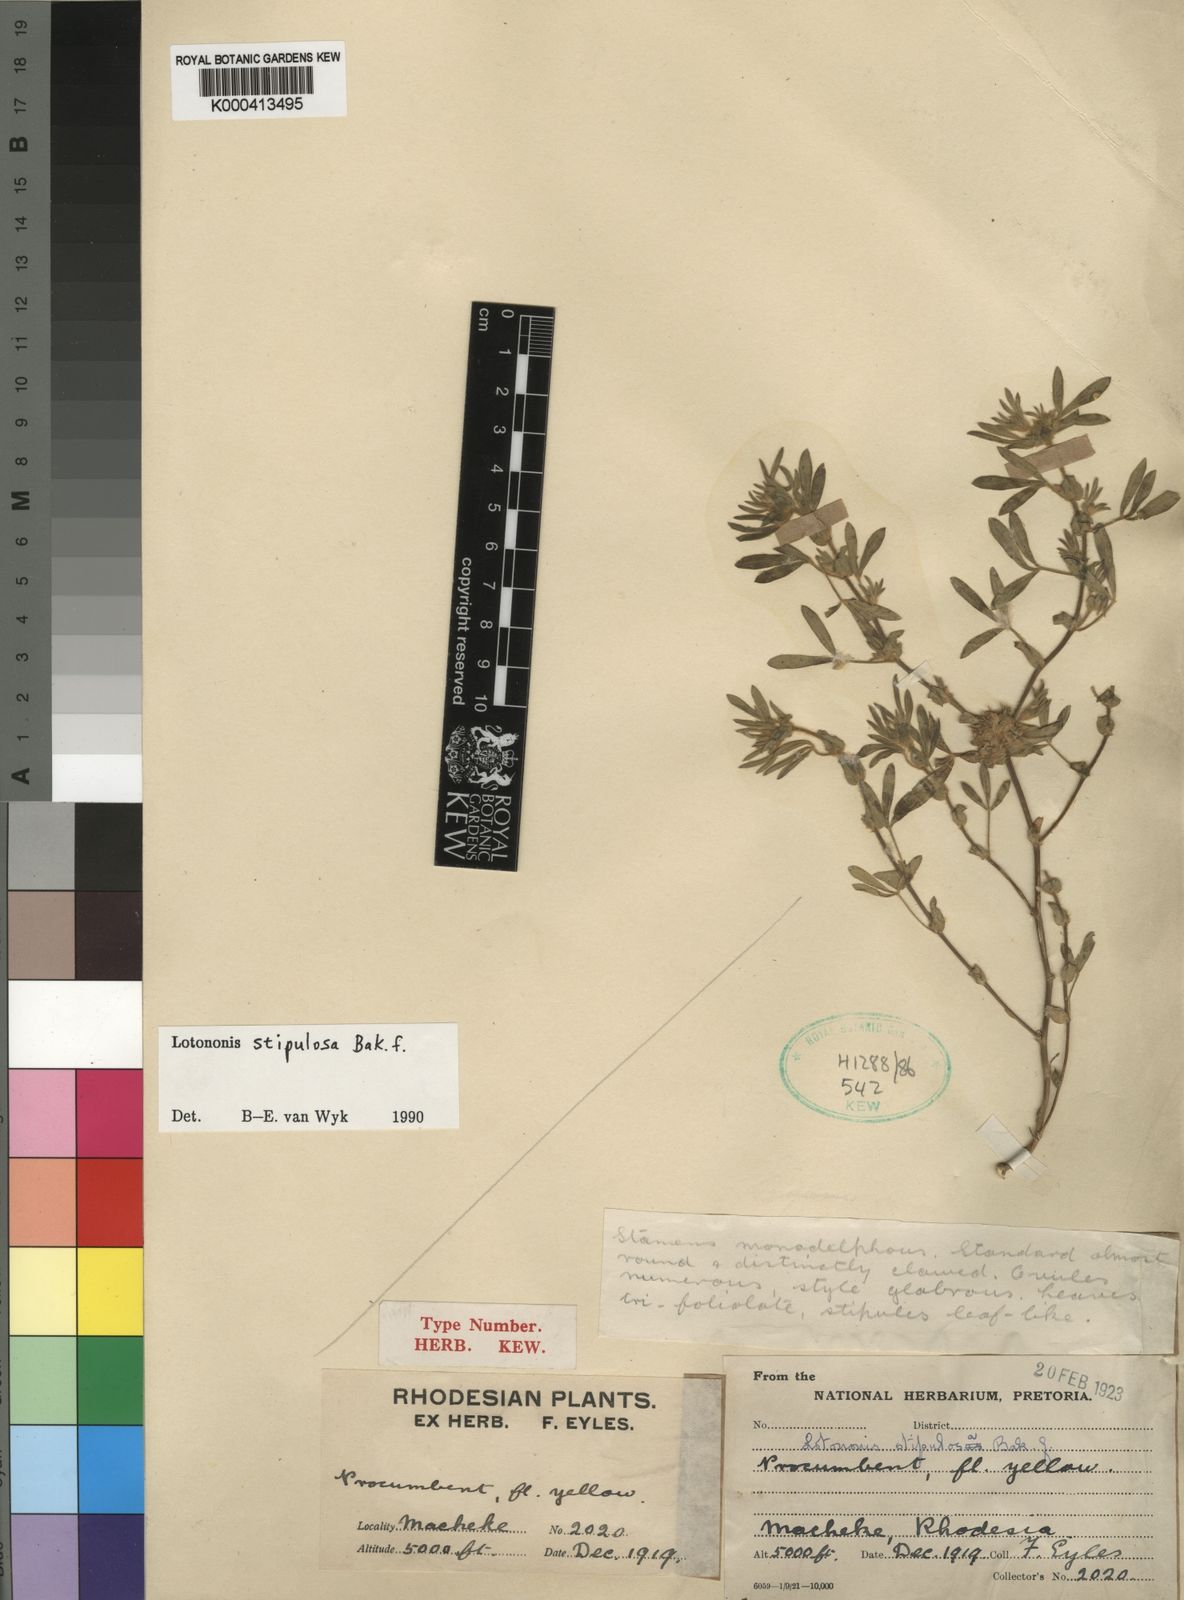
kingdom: Plantae
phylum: Tracheophyta
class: Magnoliopsida
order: Fabales
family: Fabaceae
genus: Leobordea
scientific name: Leobordea stipulosa
